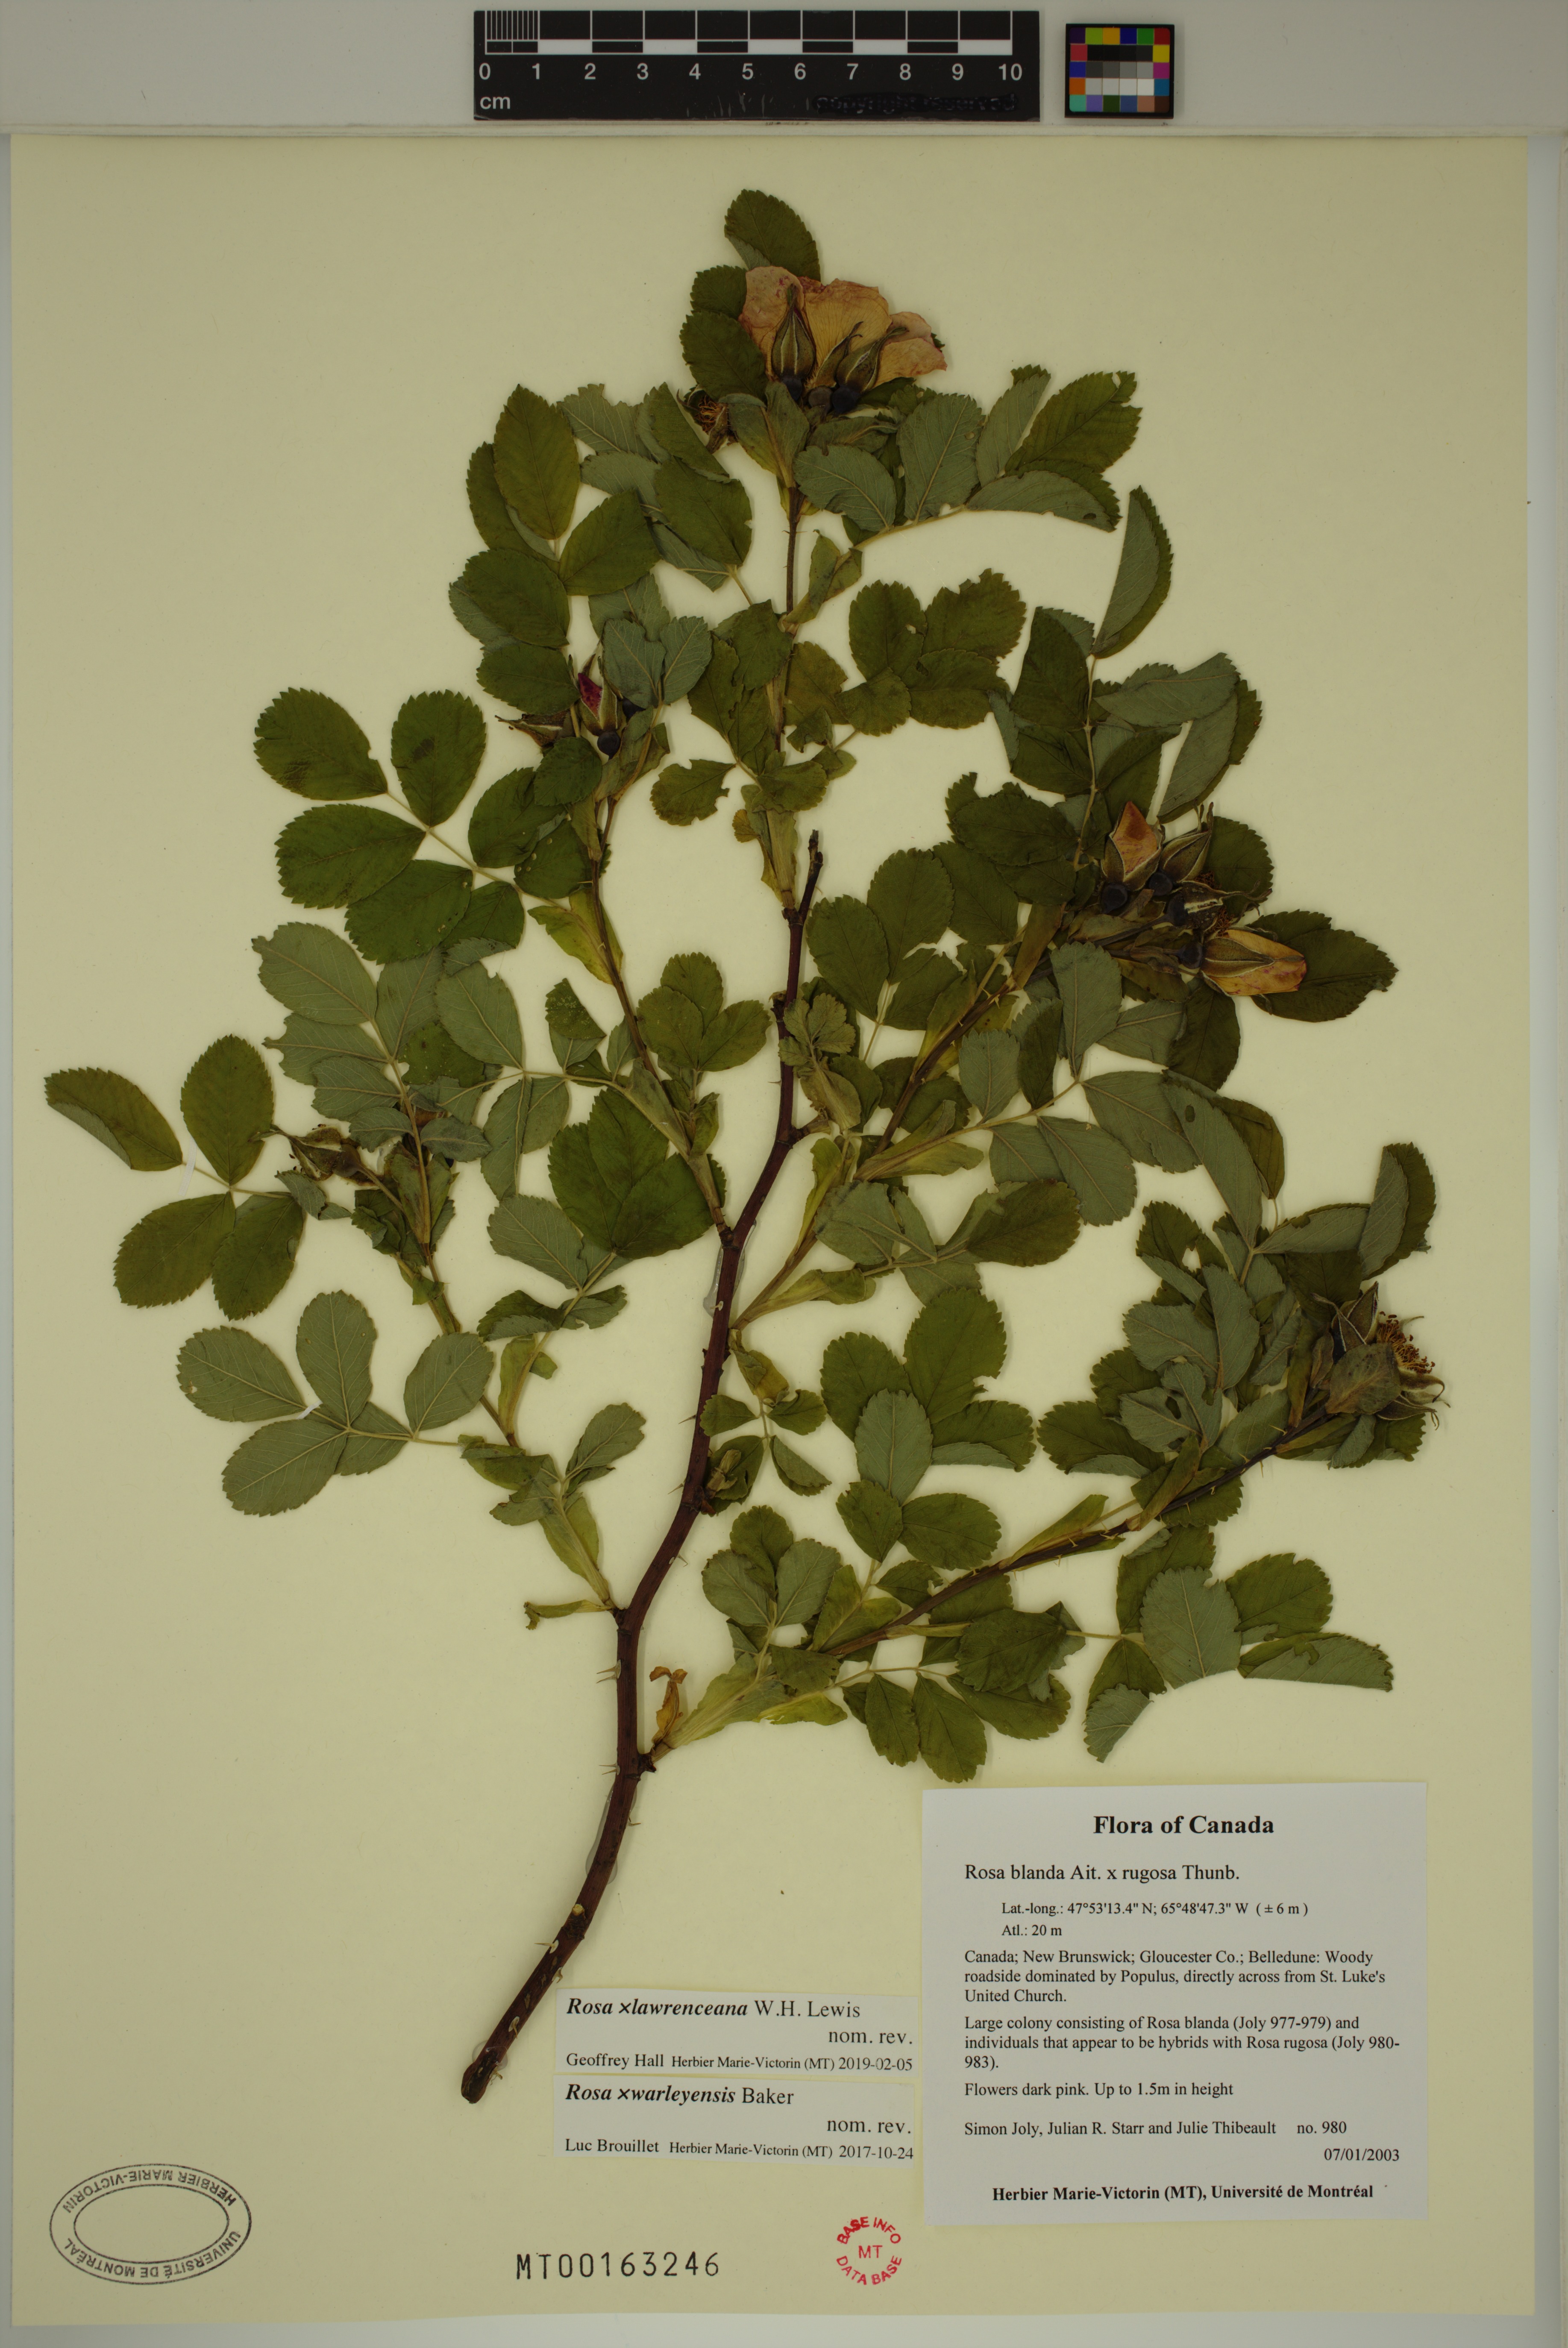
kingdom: Plantae
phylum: Tracheophyta
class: Magnoliopsida
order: Rosales
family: Rosaceae
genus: Rosa
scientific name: Rosa chinensis
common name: China rose
